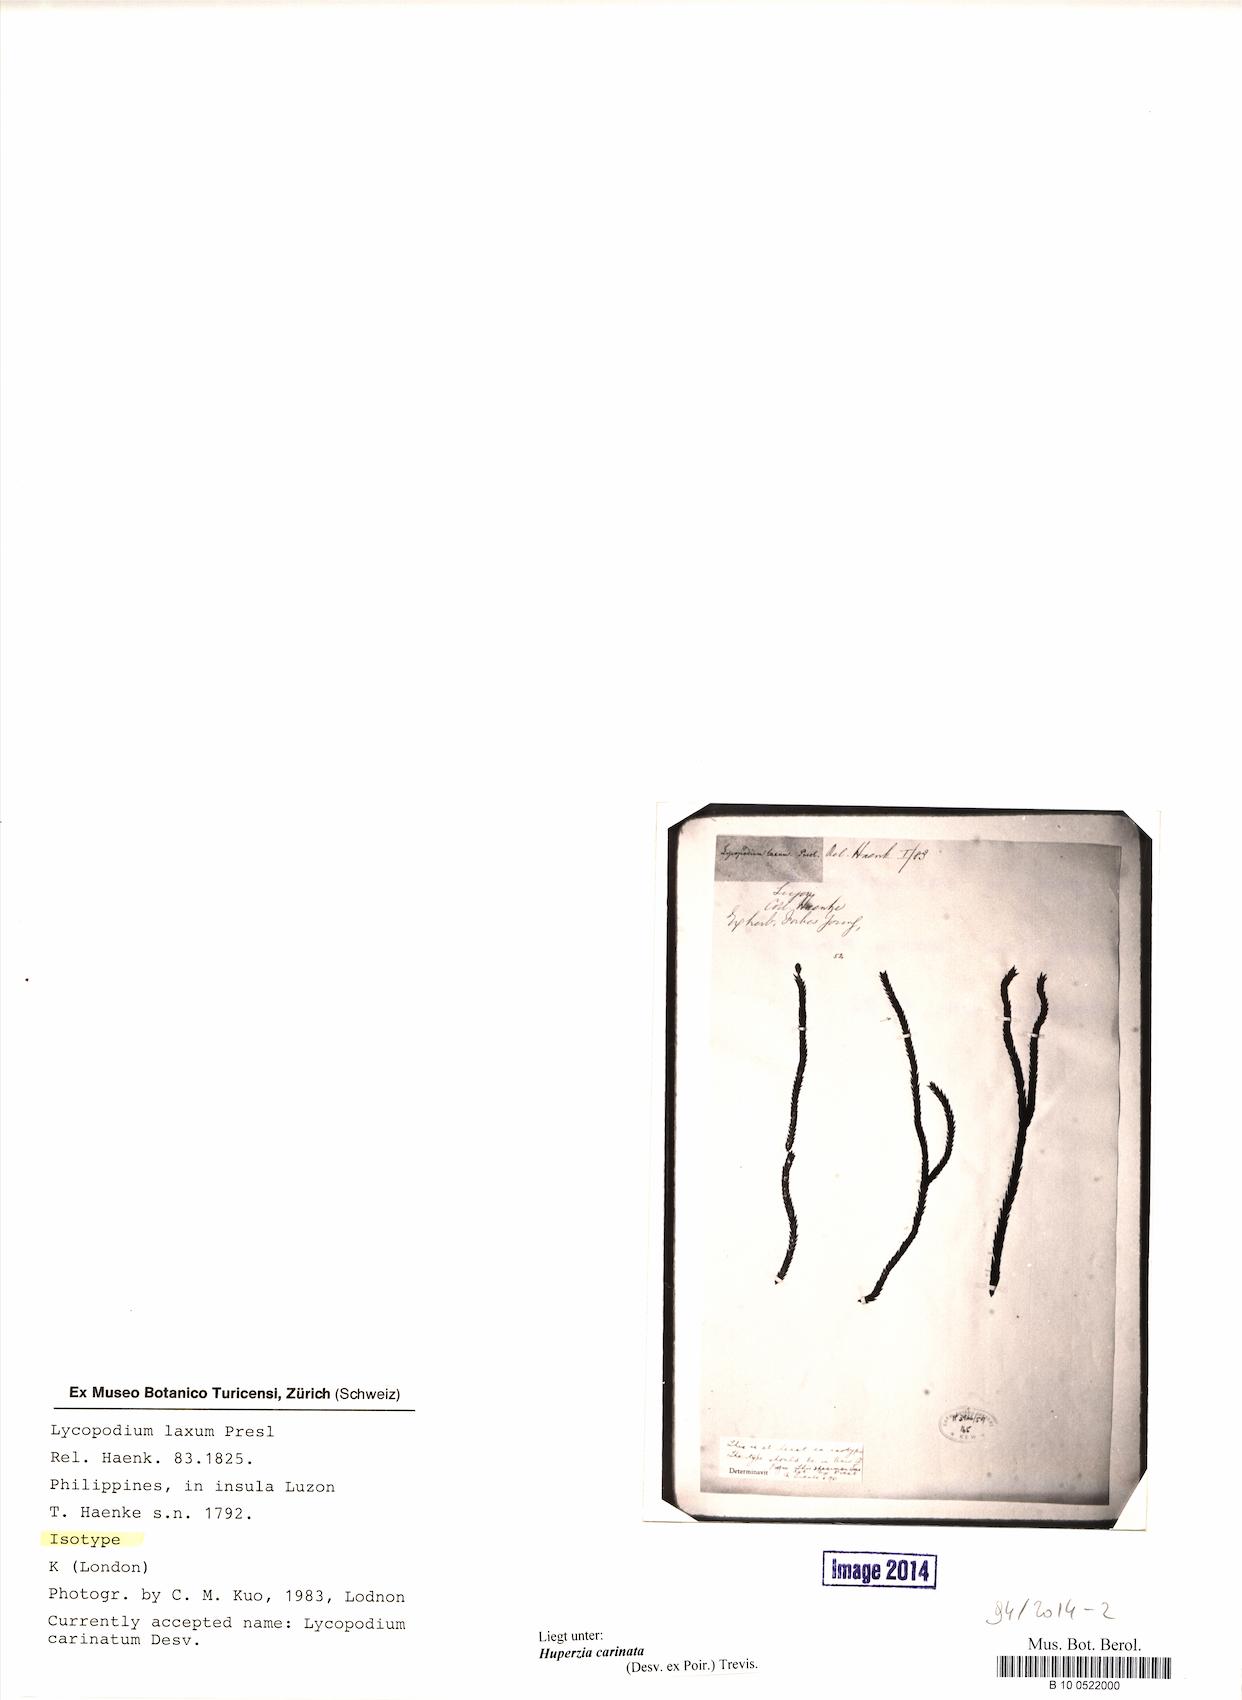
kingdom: Plantae
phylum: Tracheophyta
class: Lycopodiopsida
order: Lycopodiales
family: Lycopodiaceae
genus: Phlegmariurus
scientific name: Phlegmariurus carinatus
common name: Keeled tassel-fern
